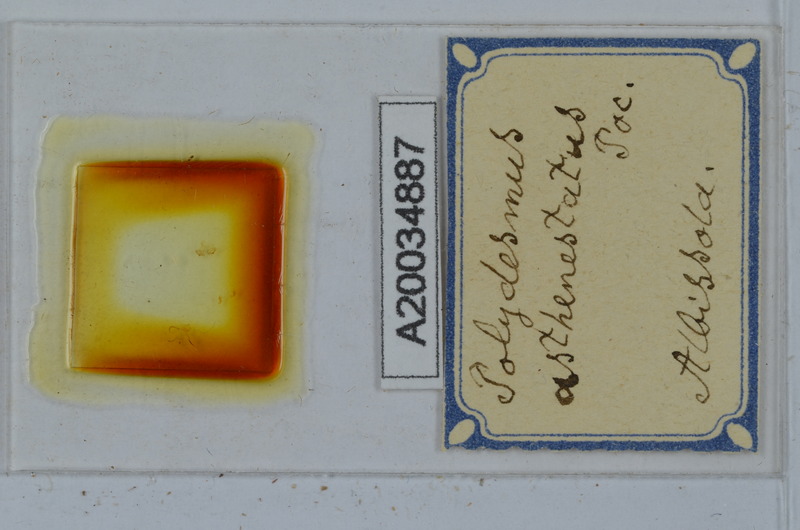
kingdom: Animalia
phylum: Arthropoda
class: Diplopoda
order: Polydesmida
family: Polydesmidae
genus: Polydesmus
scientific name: Polydesmus asthenestatus
